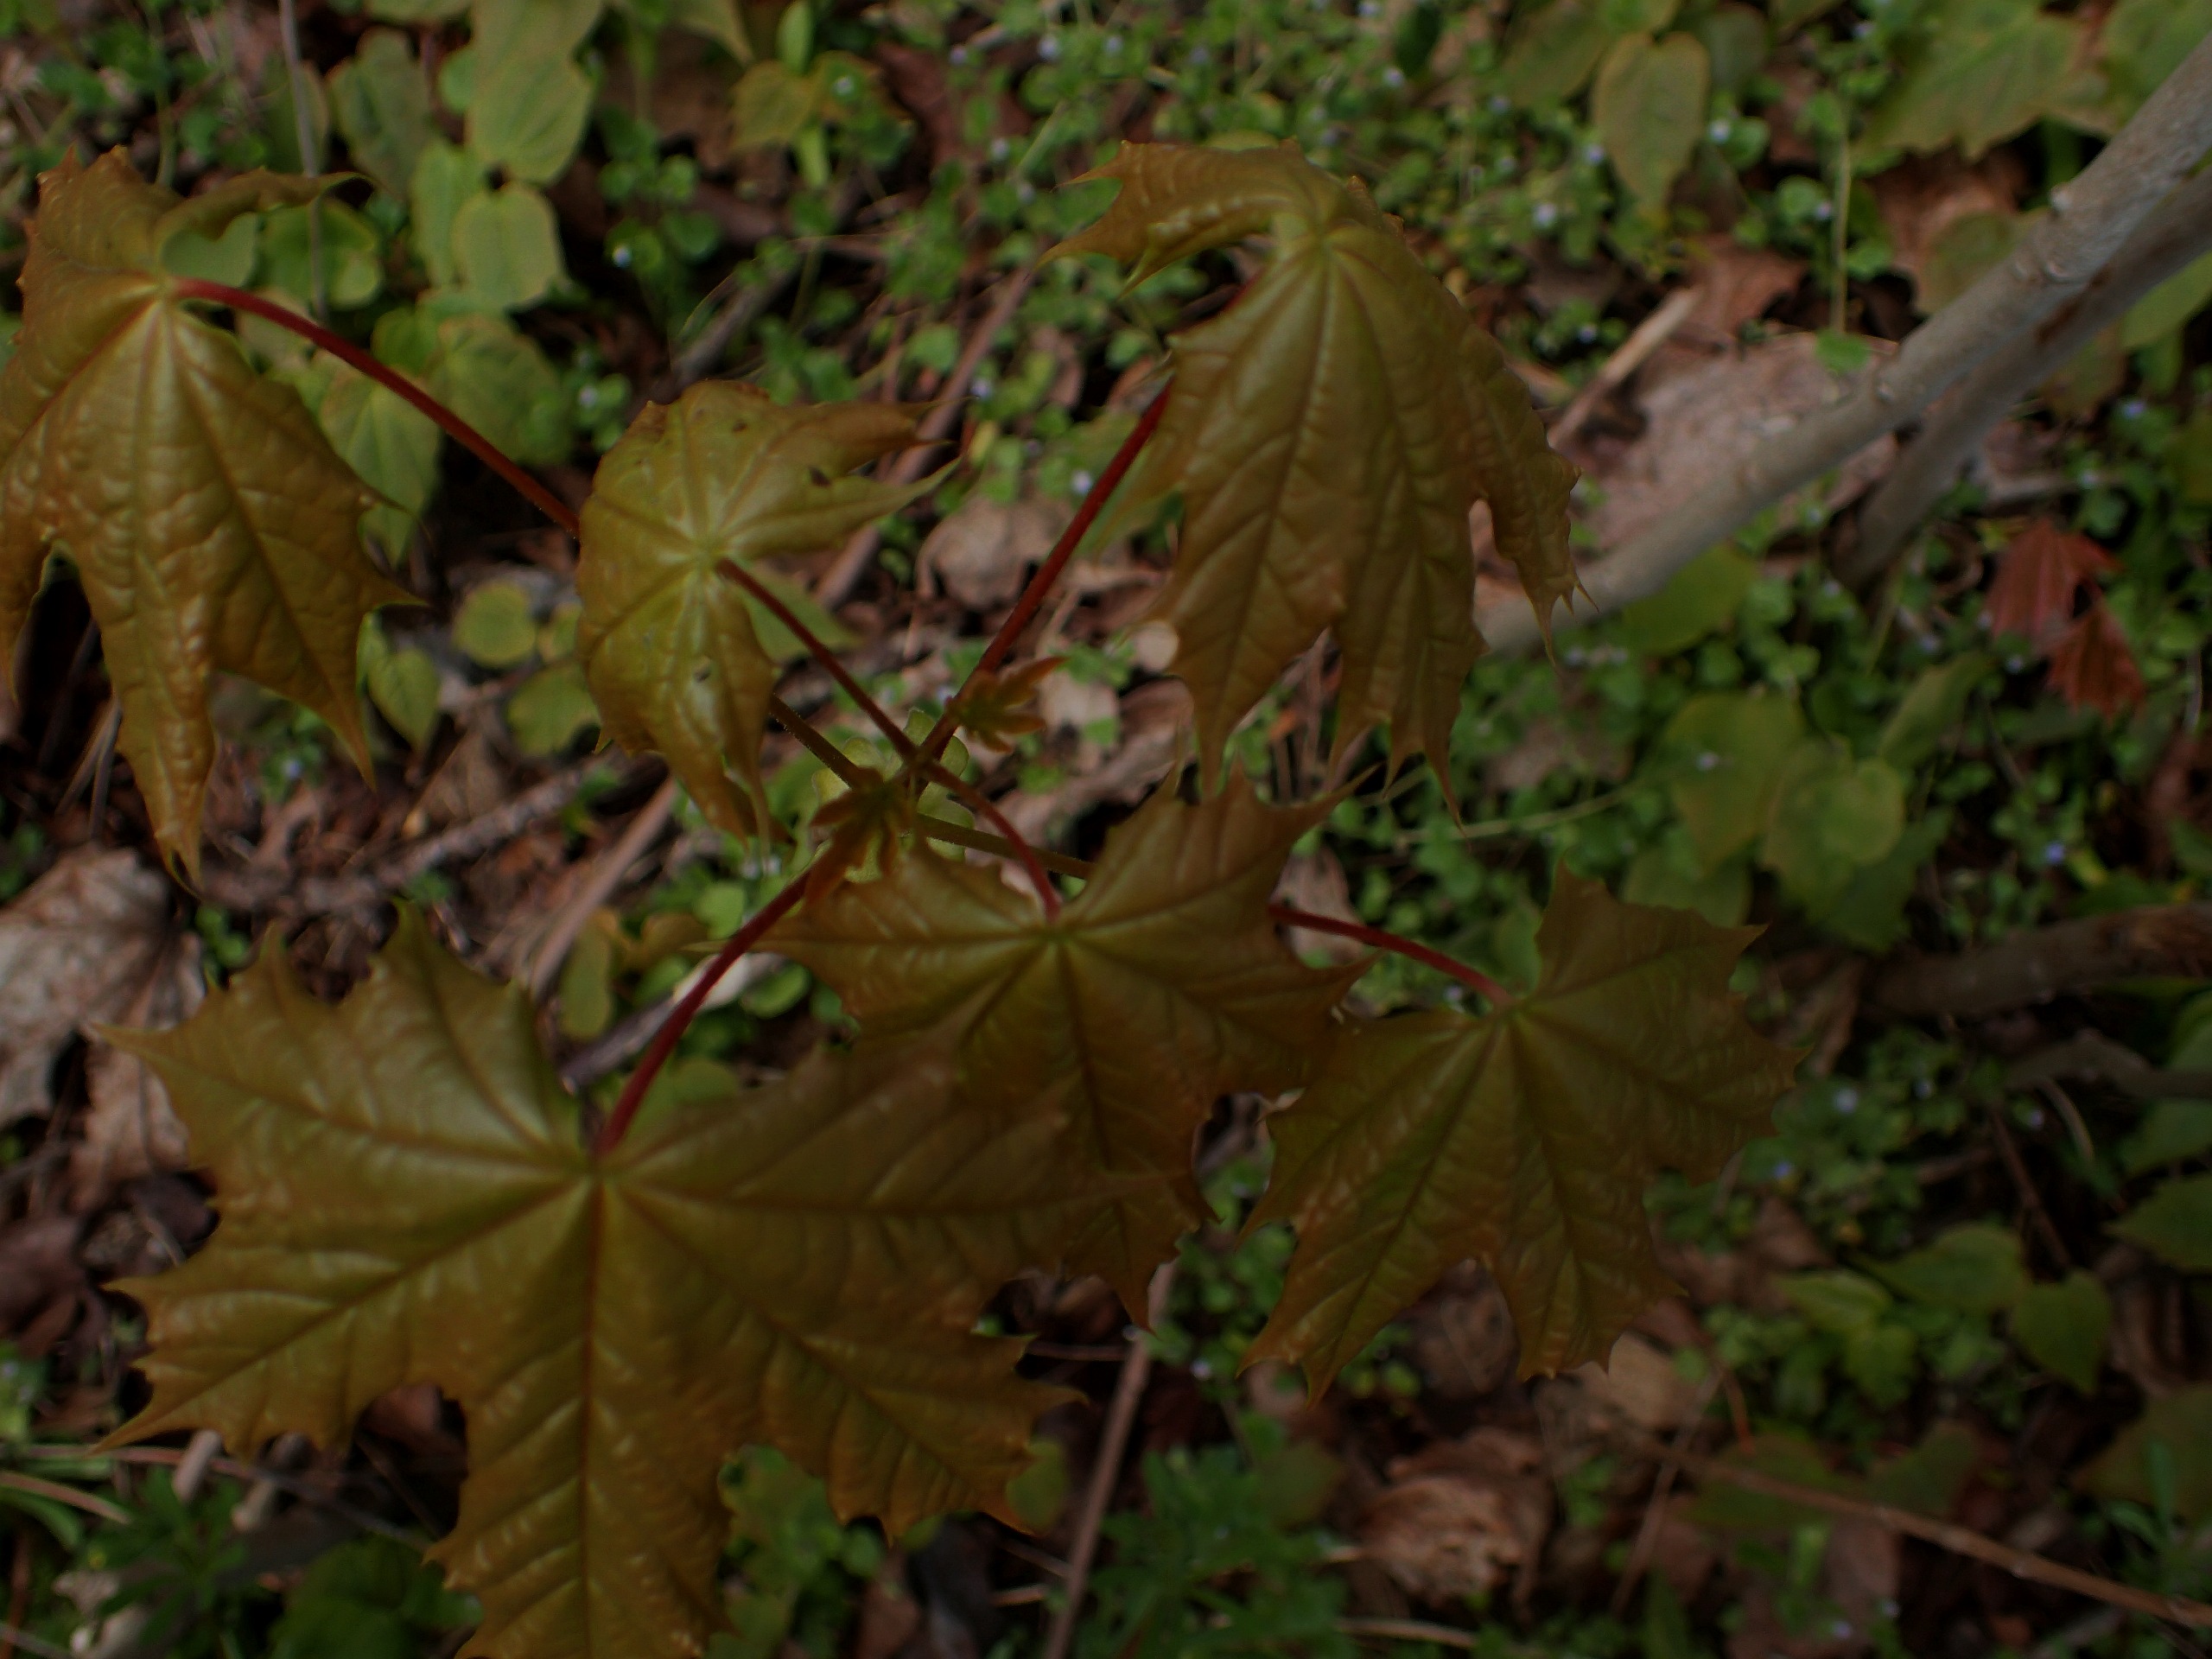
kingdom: Plantae
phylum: Tracheophyta
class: Magnoliopsida
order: Sapindales
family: Sapindaceae
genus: Acer
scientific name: Acer platanoides
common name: Spids-løn
